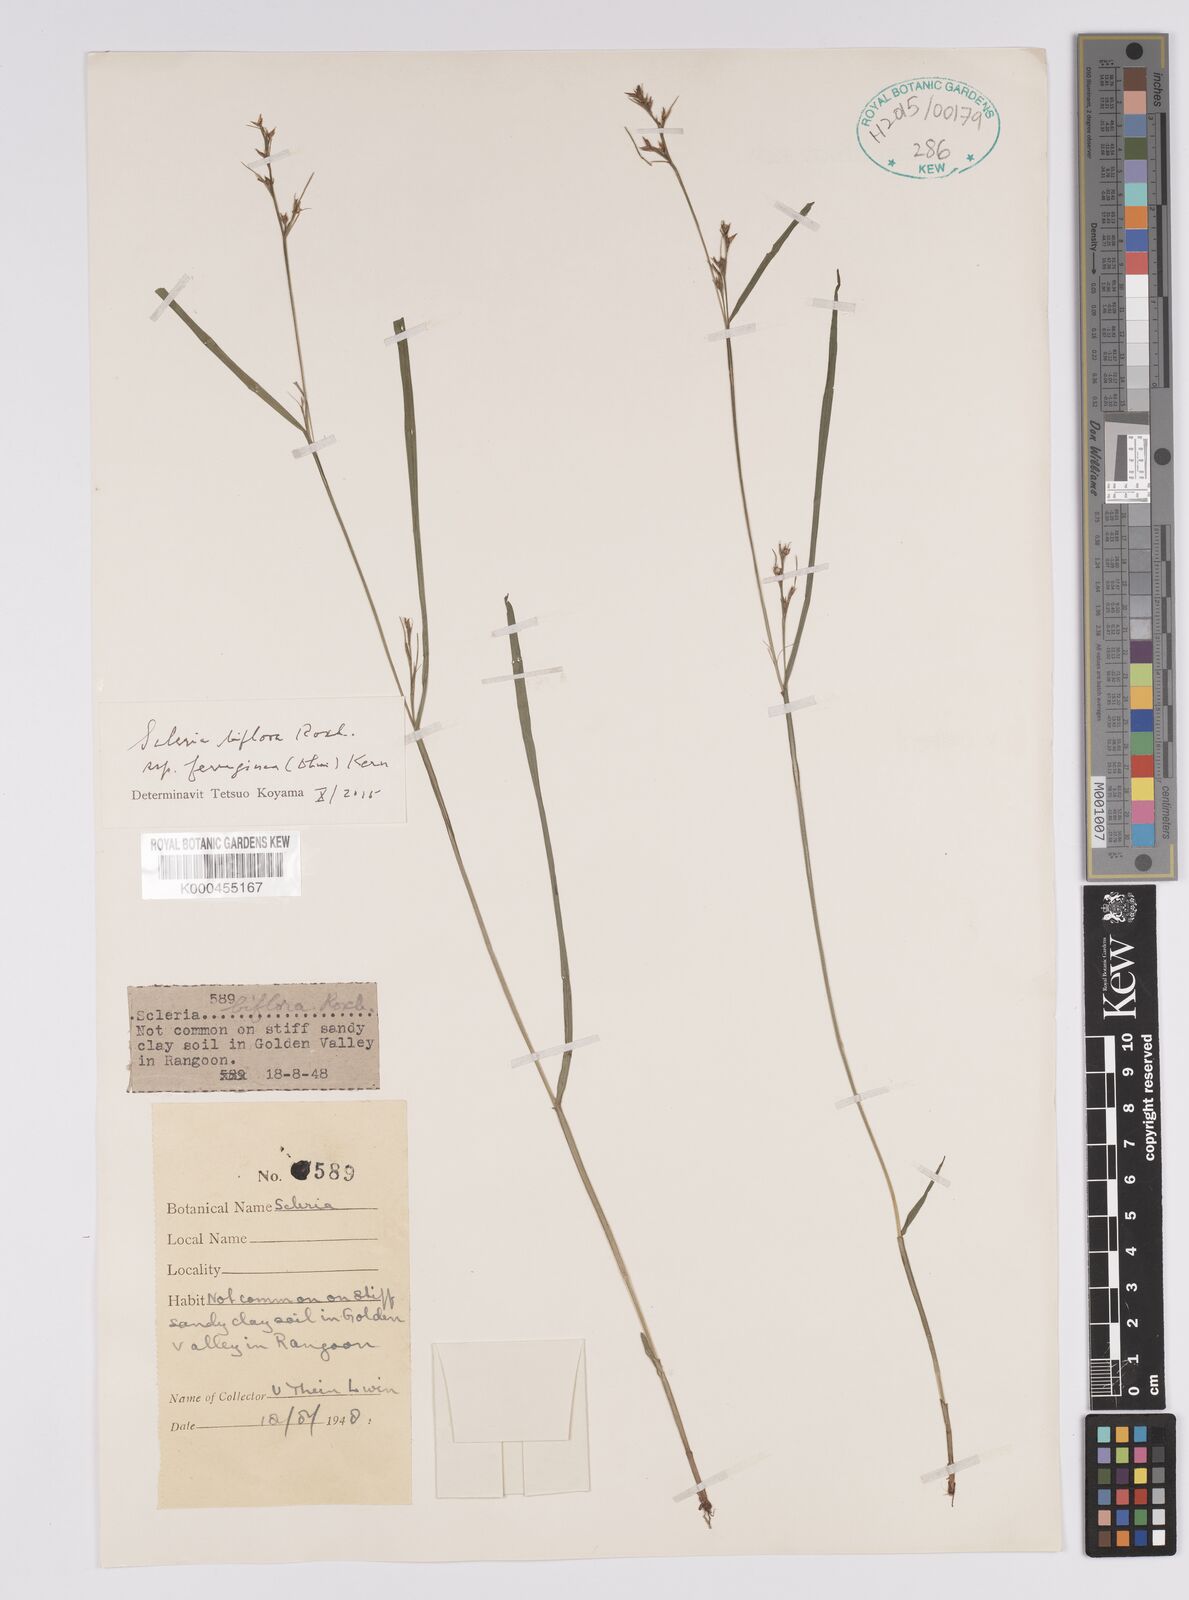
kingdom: Plantae
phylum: Tracheophyta
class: Liliopsida
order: Poales
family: Cyperaceae
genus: Scleria
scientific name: Scleria biflora
